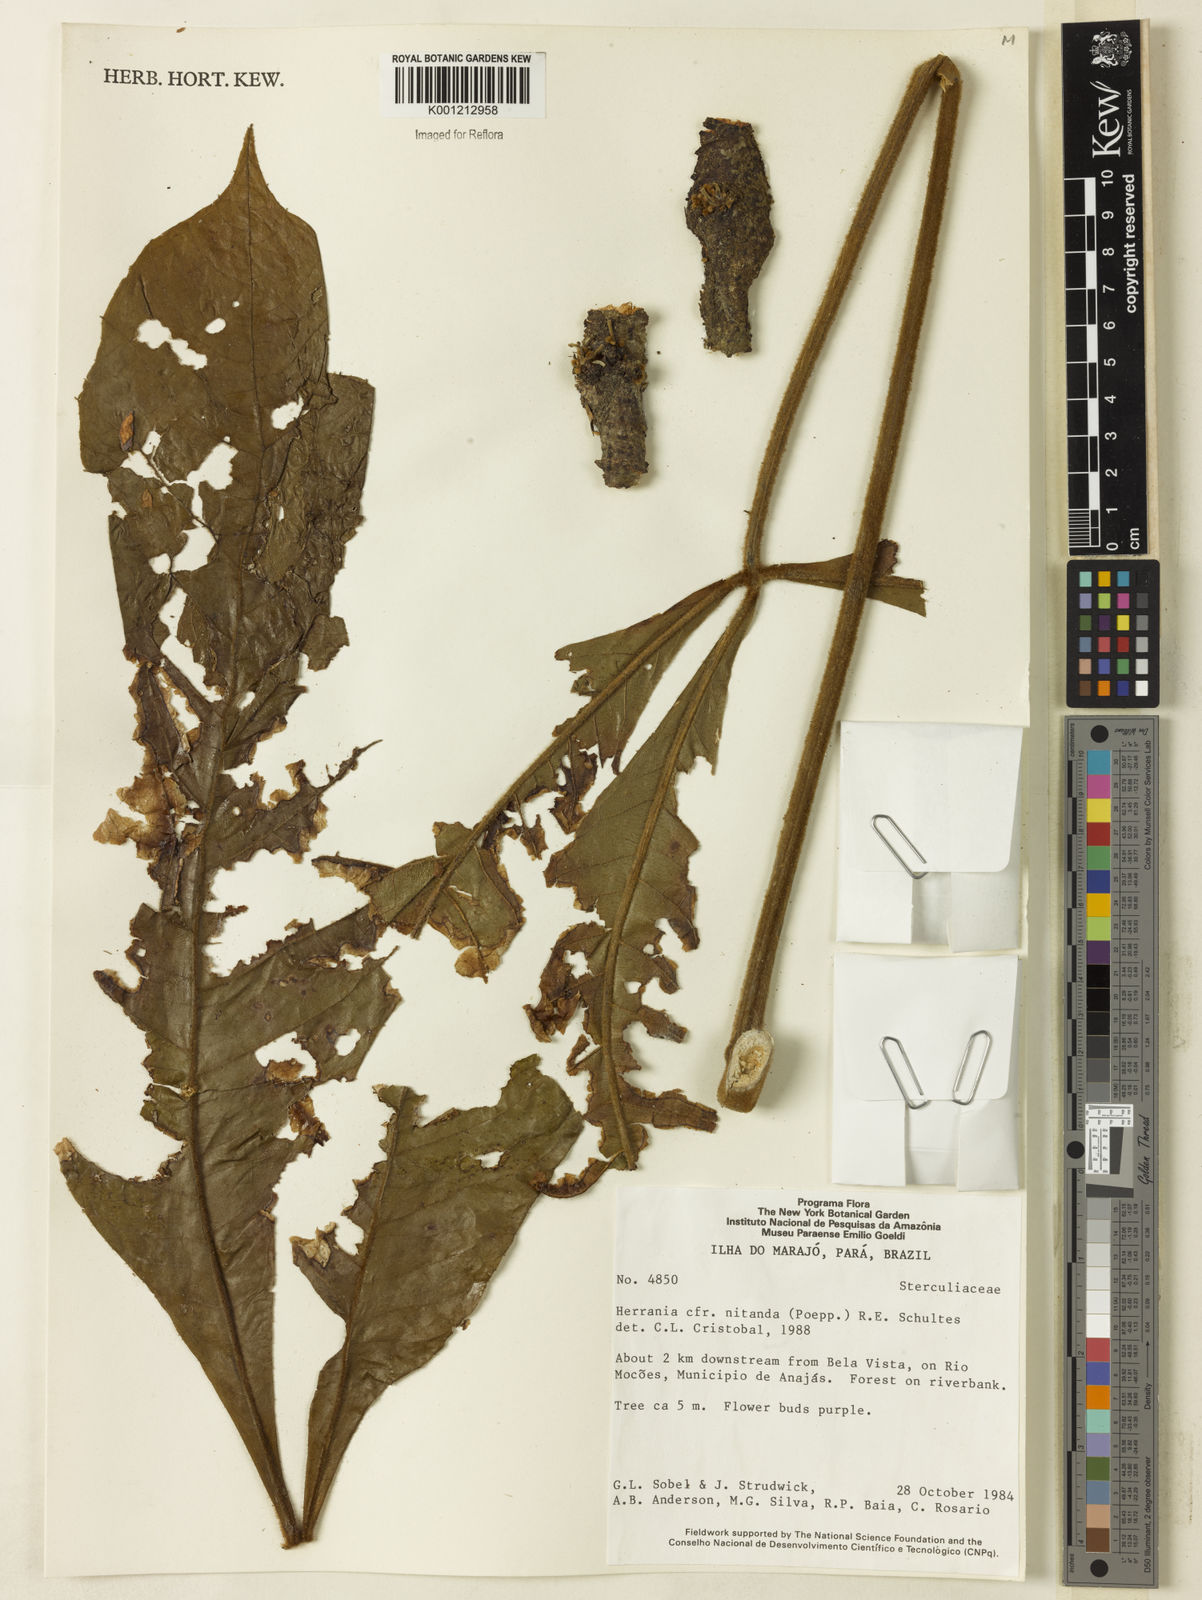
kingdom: Plantae
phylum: Tracheophyta
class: Magnoliopsida
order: Malvales
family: Malvaceae
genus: Herrania
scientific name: Herrania nitida
